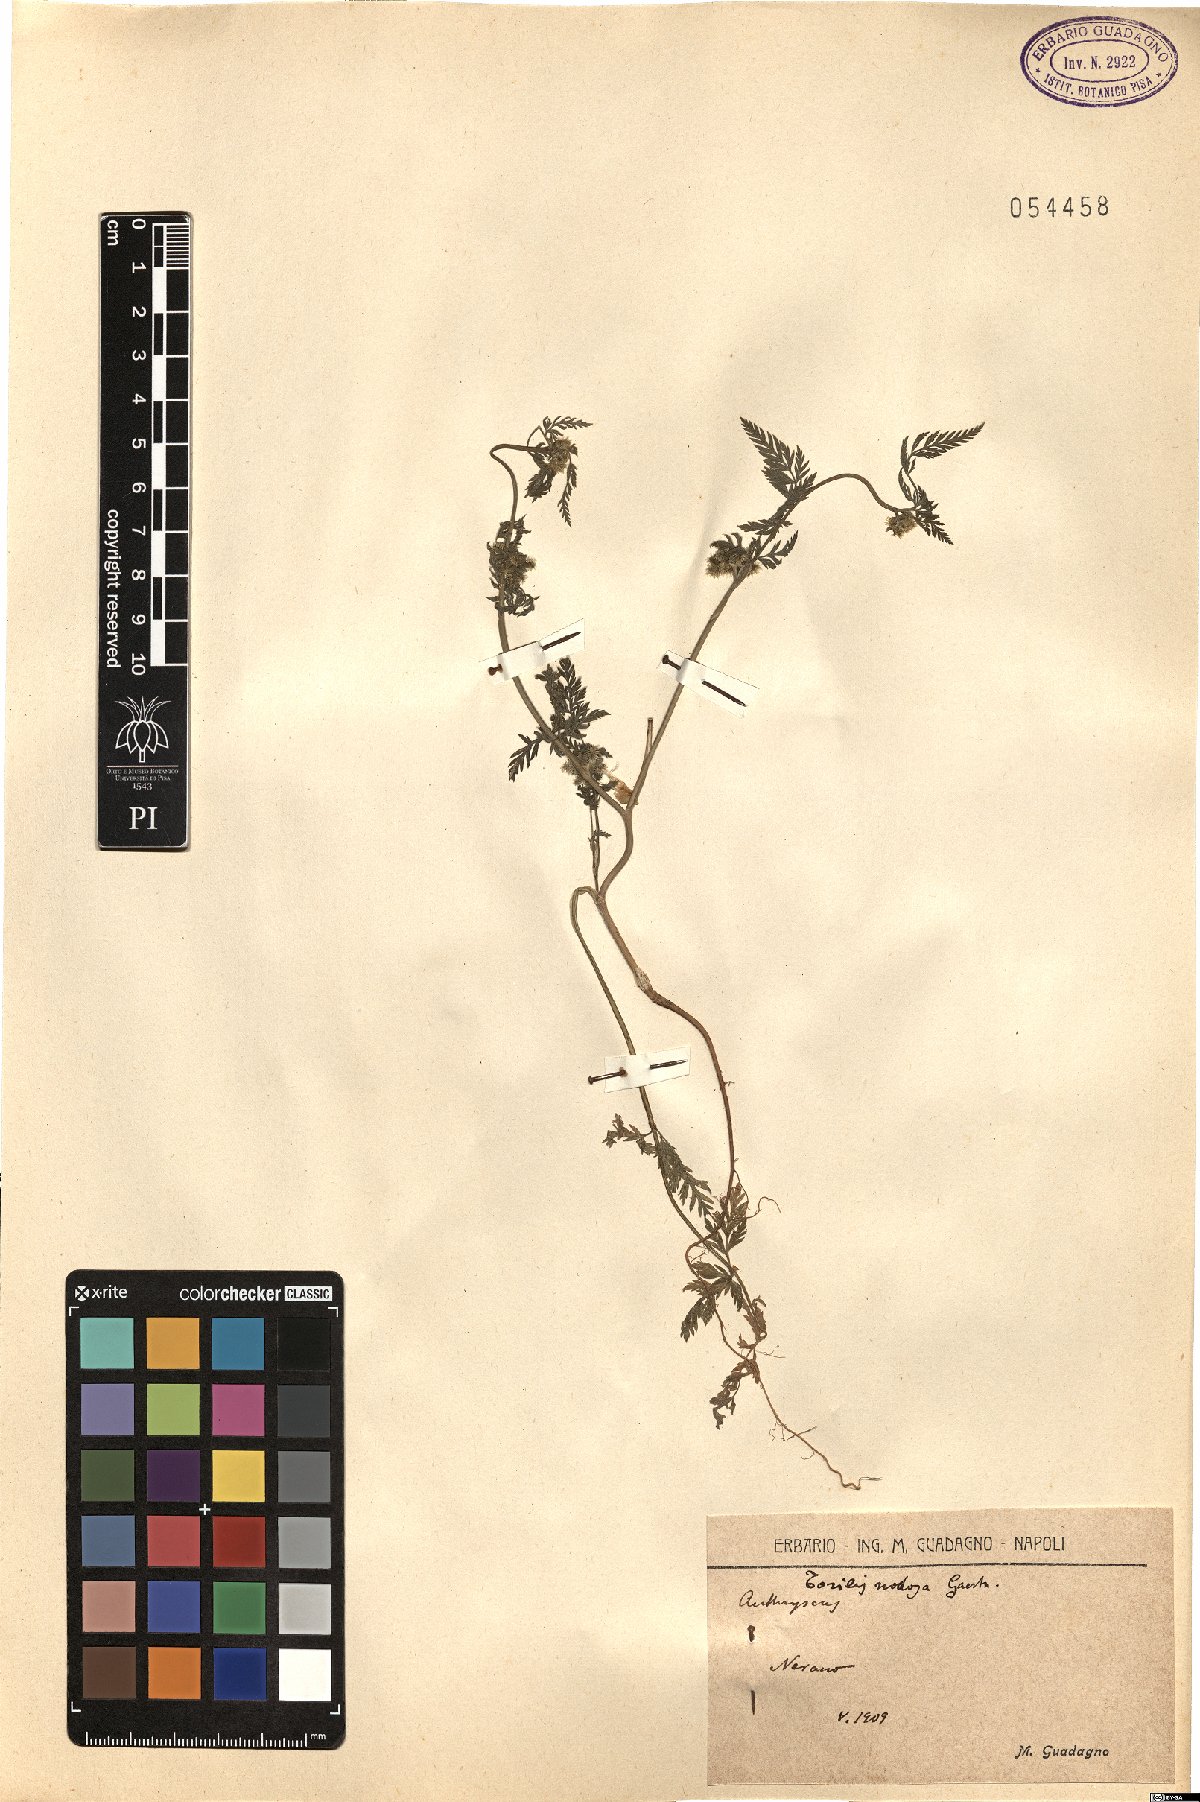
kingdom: Plantae
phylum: Tracheophyta
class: Magnoliopsida
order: Apiales
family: Apiaceae
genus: Torilis
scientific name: Torilis nodosa
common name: Knotted hedge-parsley
